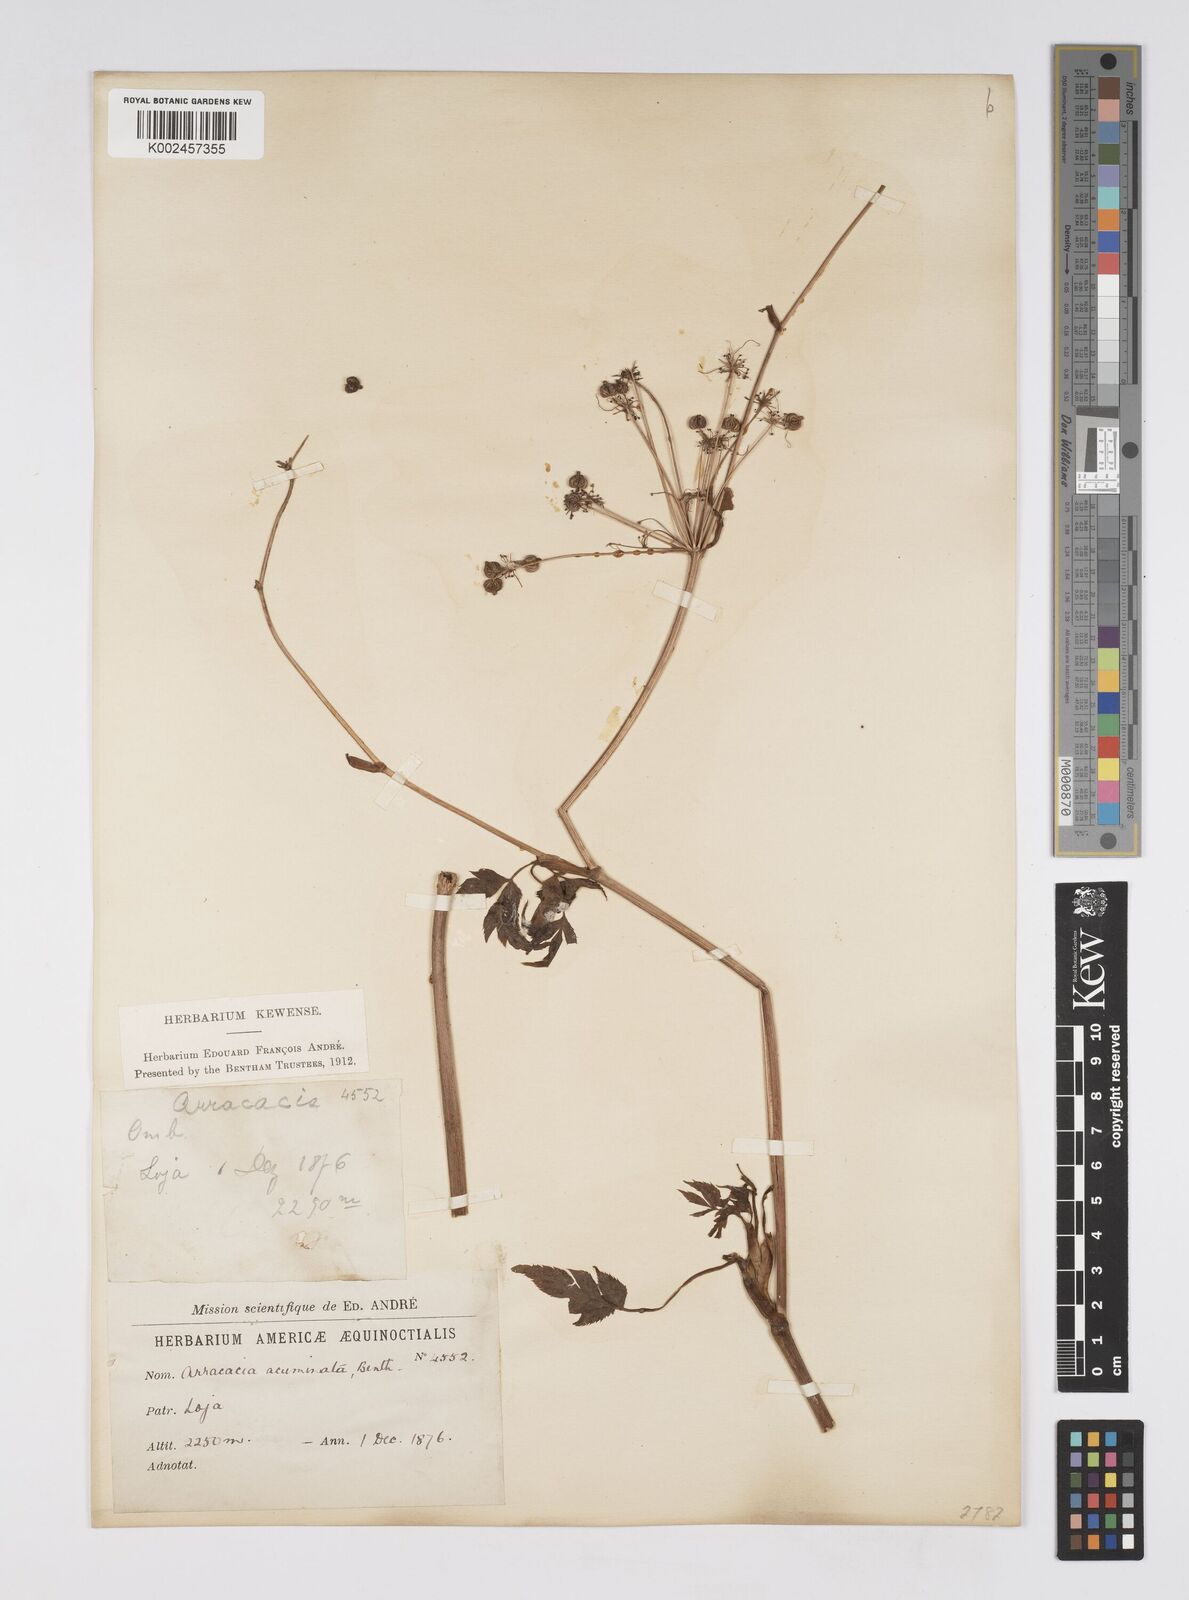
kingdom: Plantae
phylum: Tracheophyta
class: Magnoliopsida
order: Apiales
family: Apiaceae
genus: Neonelsonia
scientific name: Neonelsonia acuminata
